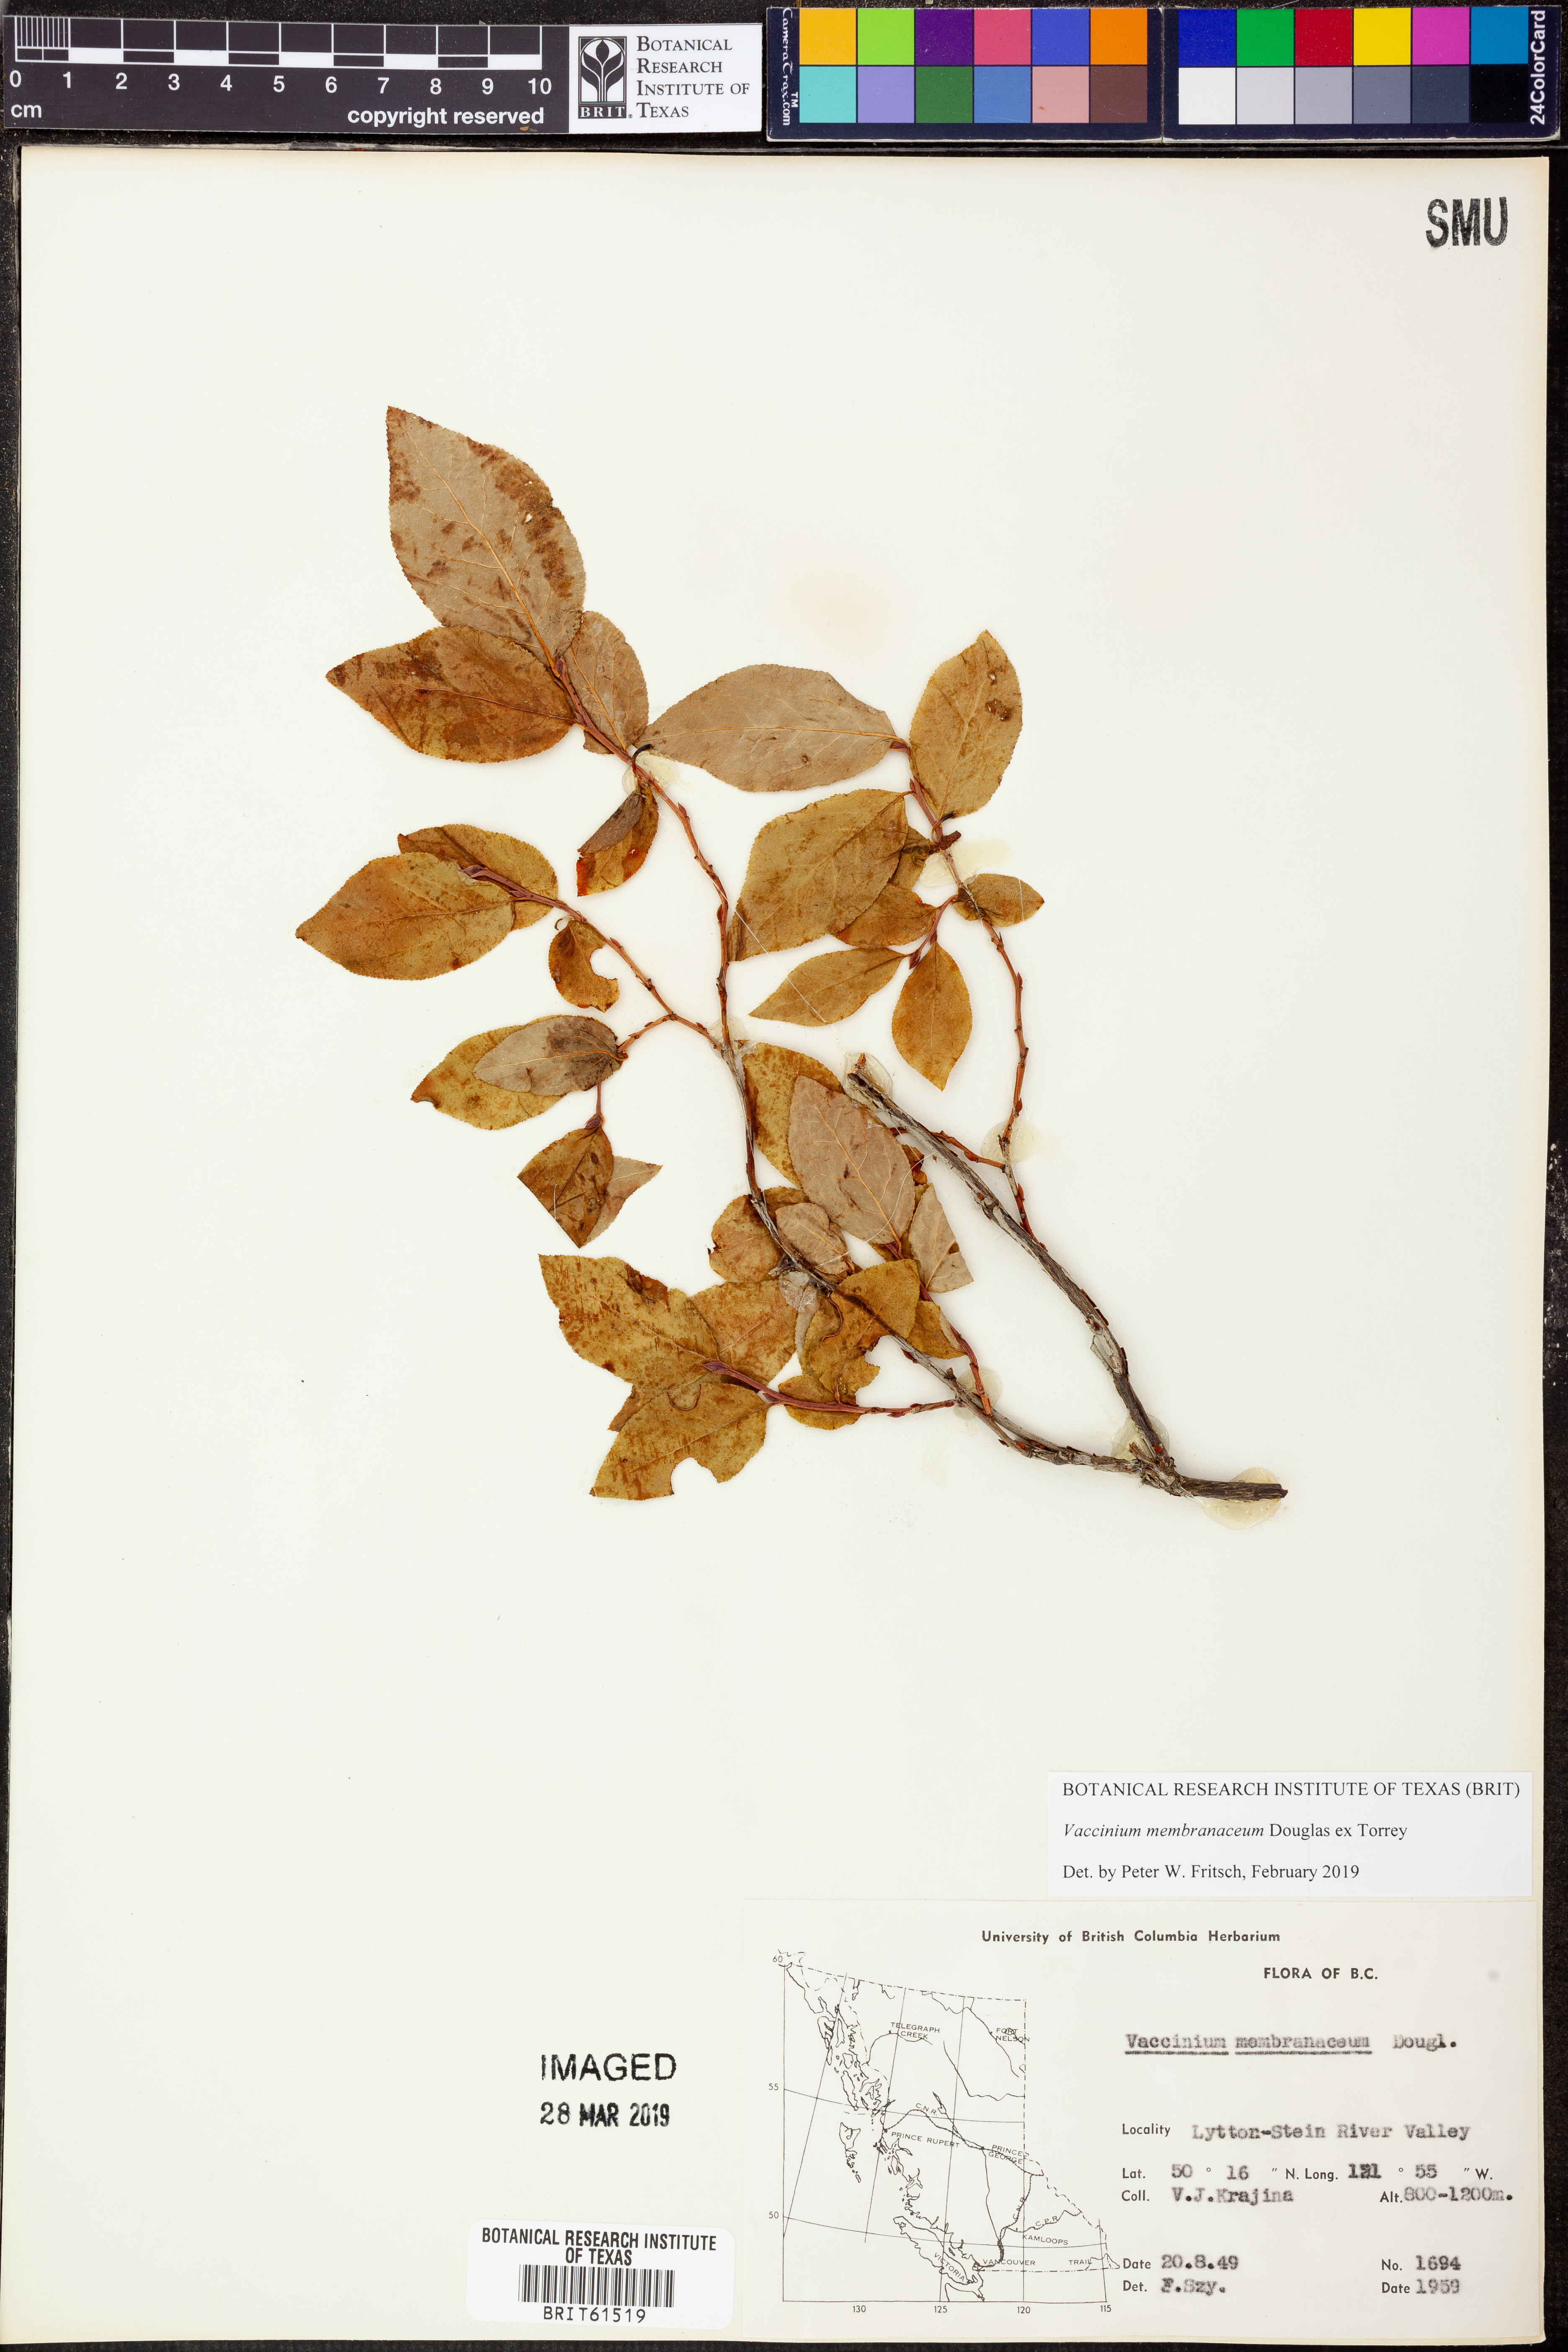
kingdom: Plantae
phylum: Tracheophyta
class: Magnoliopsida
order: Ericales
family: Ericaceae
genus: Vaccinium
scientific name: Vaccinium membranaceum
